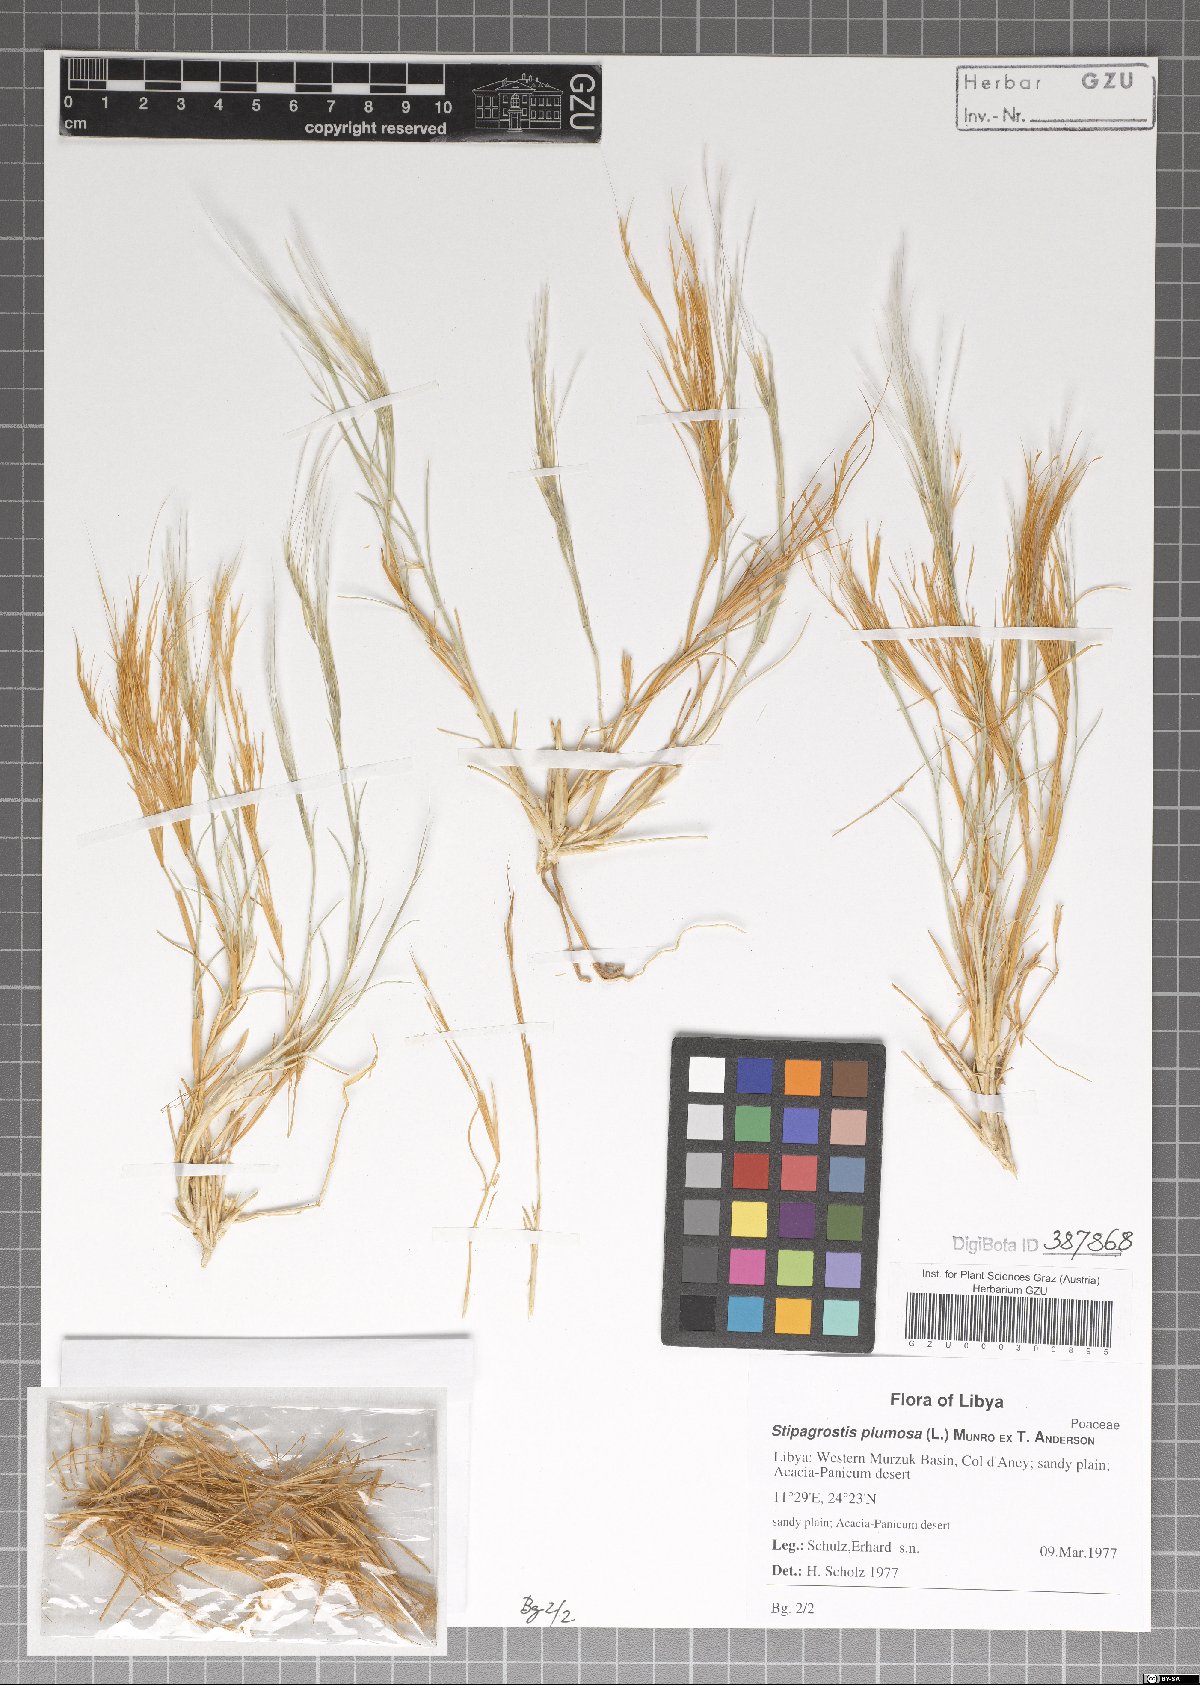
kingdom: Plantae
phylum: Tracheophyta
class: Liliopsida
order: Poales
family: Poaceae
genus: Stipagrostis
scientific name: Stipagrostis plumosa
